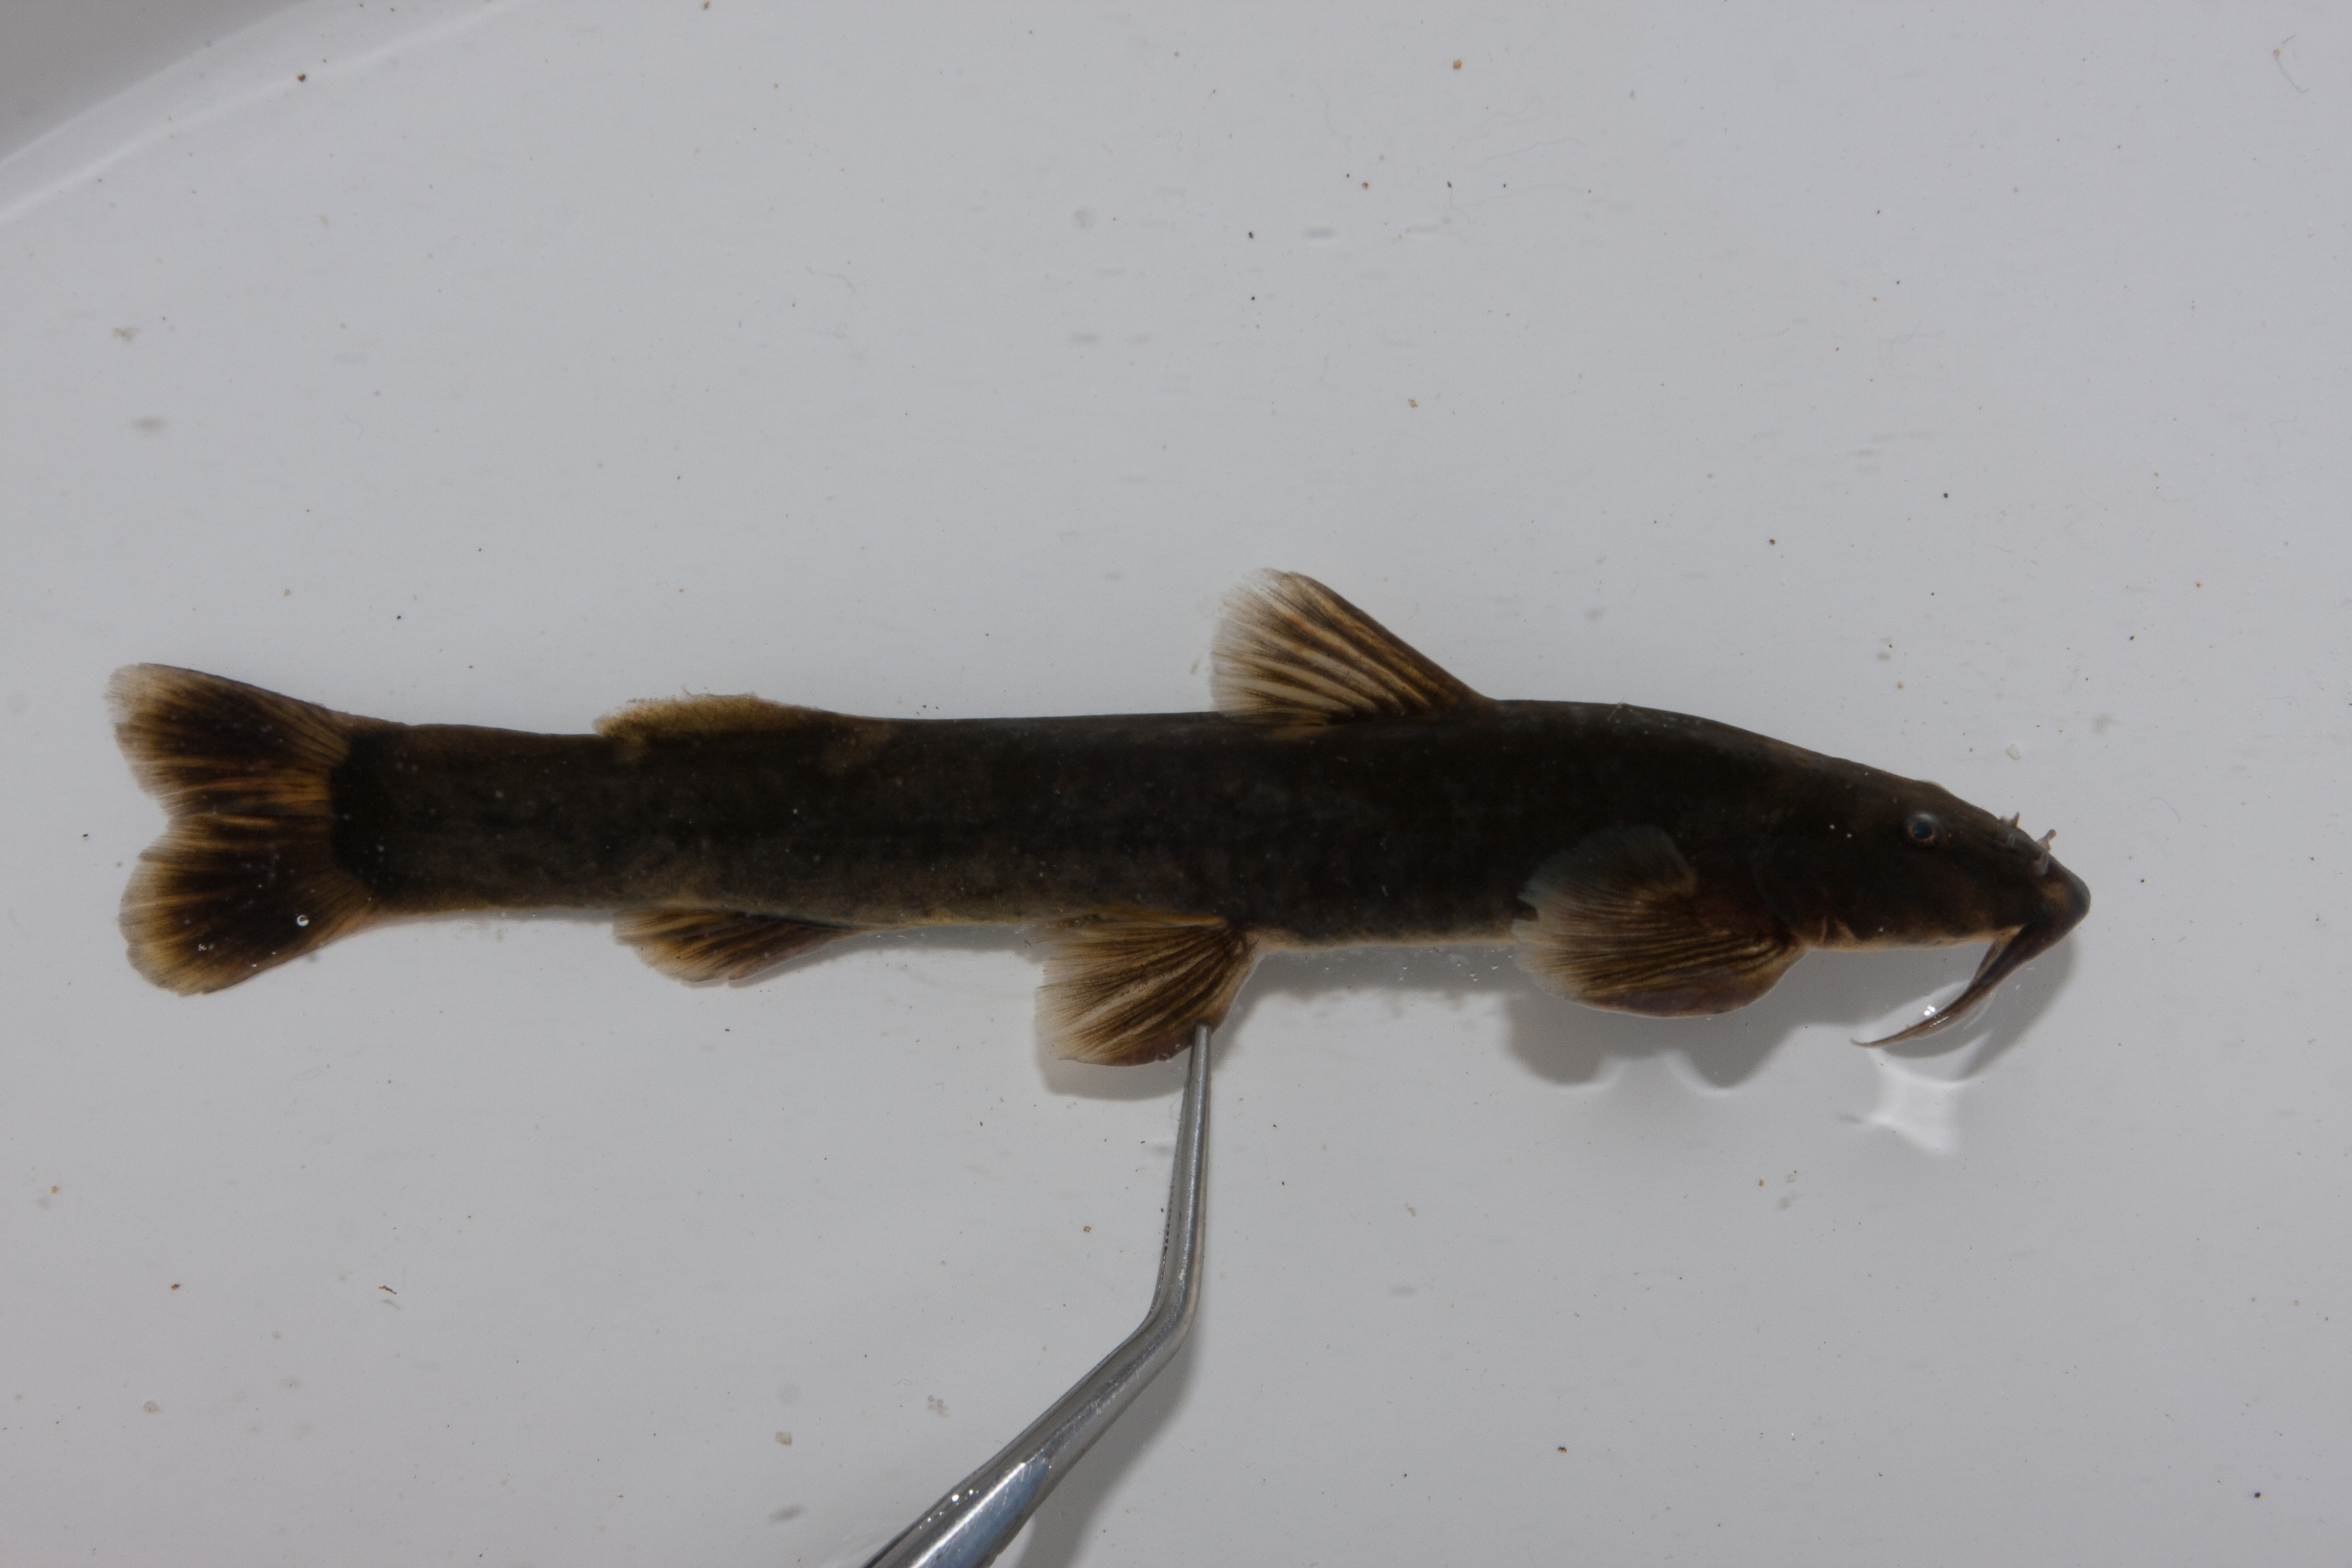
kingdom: Animalia
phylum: Chordata
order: Siluriformes
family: Amphiliidae
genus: Amphilius
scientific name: Amphilius natalensis
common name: Natal mountain catfish
